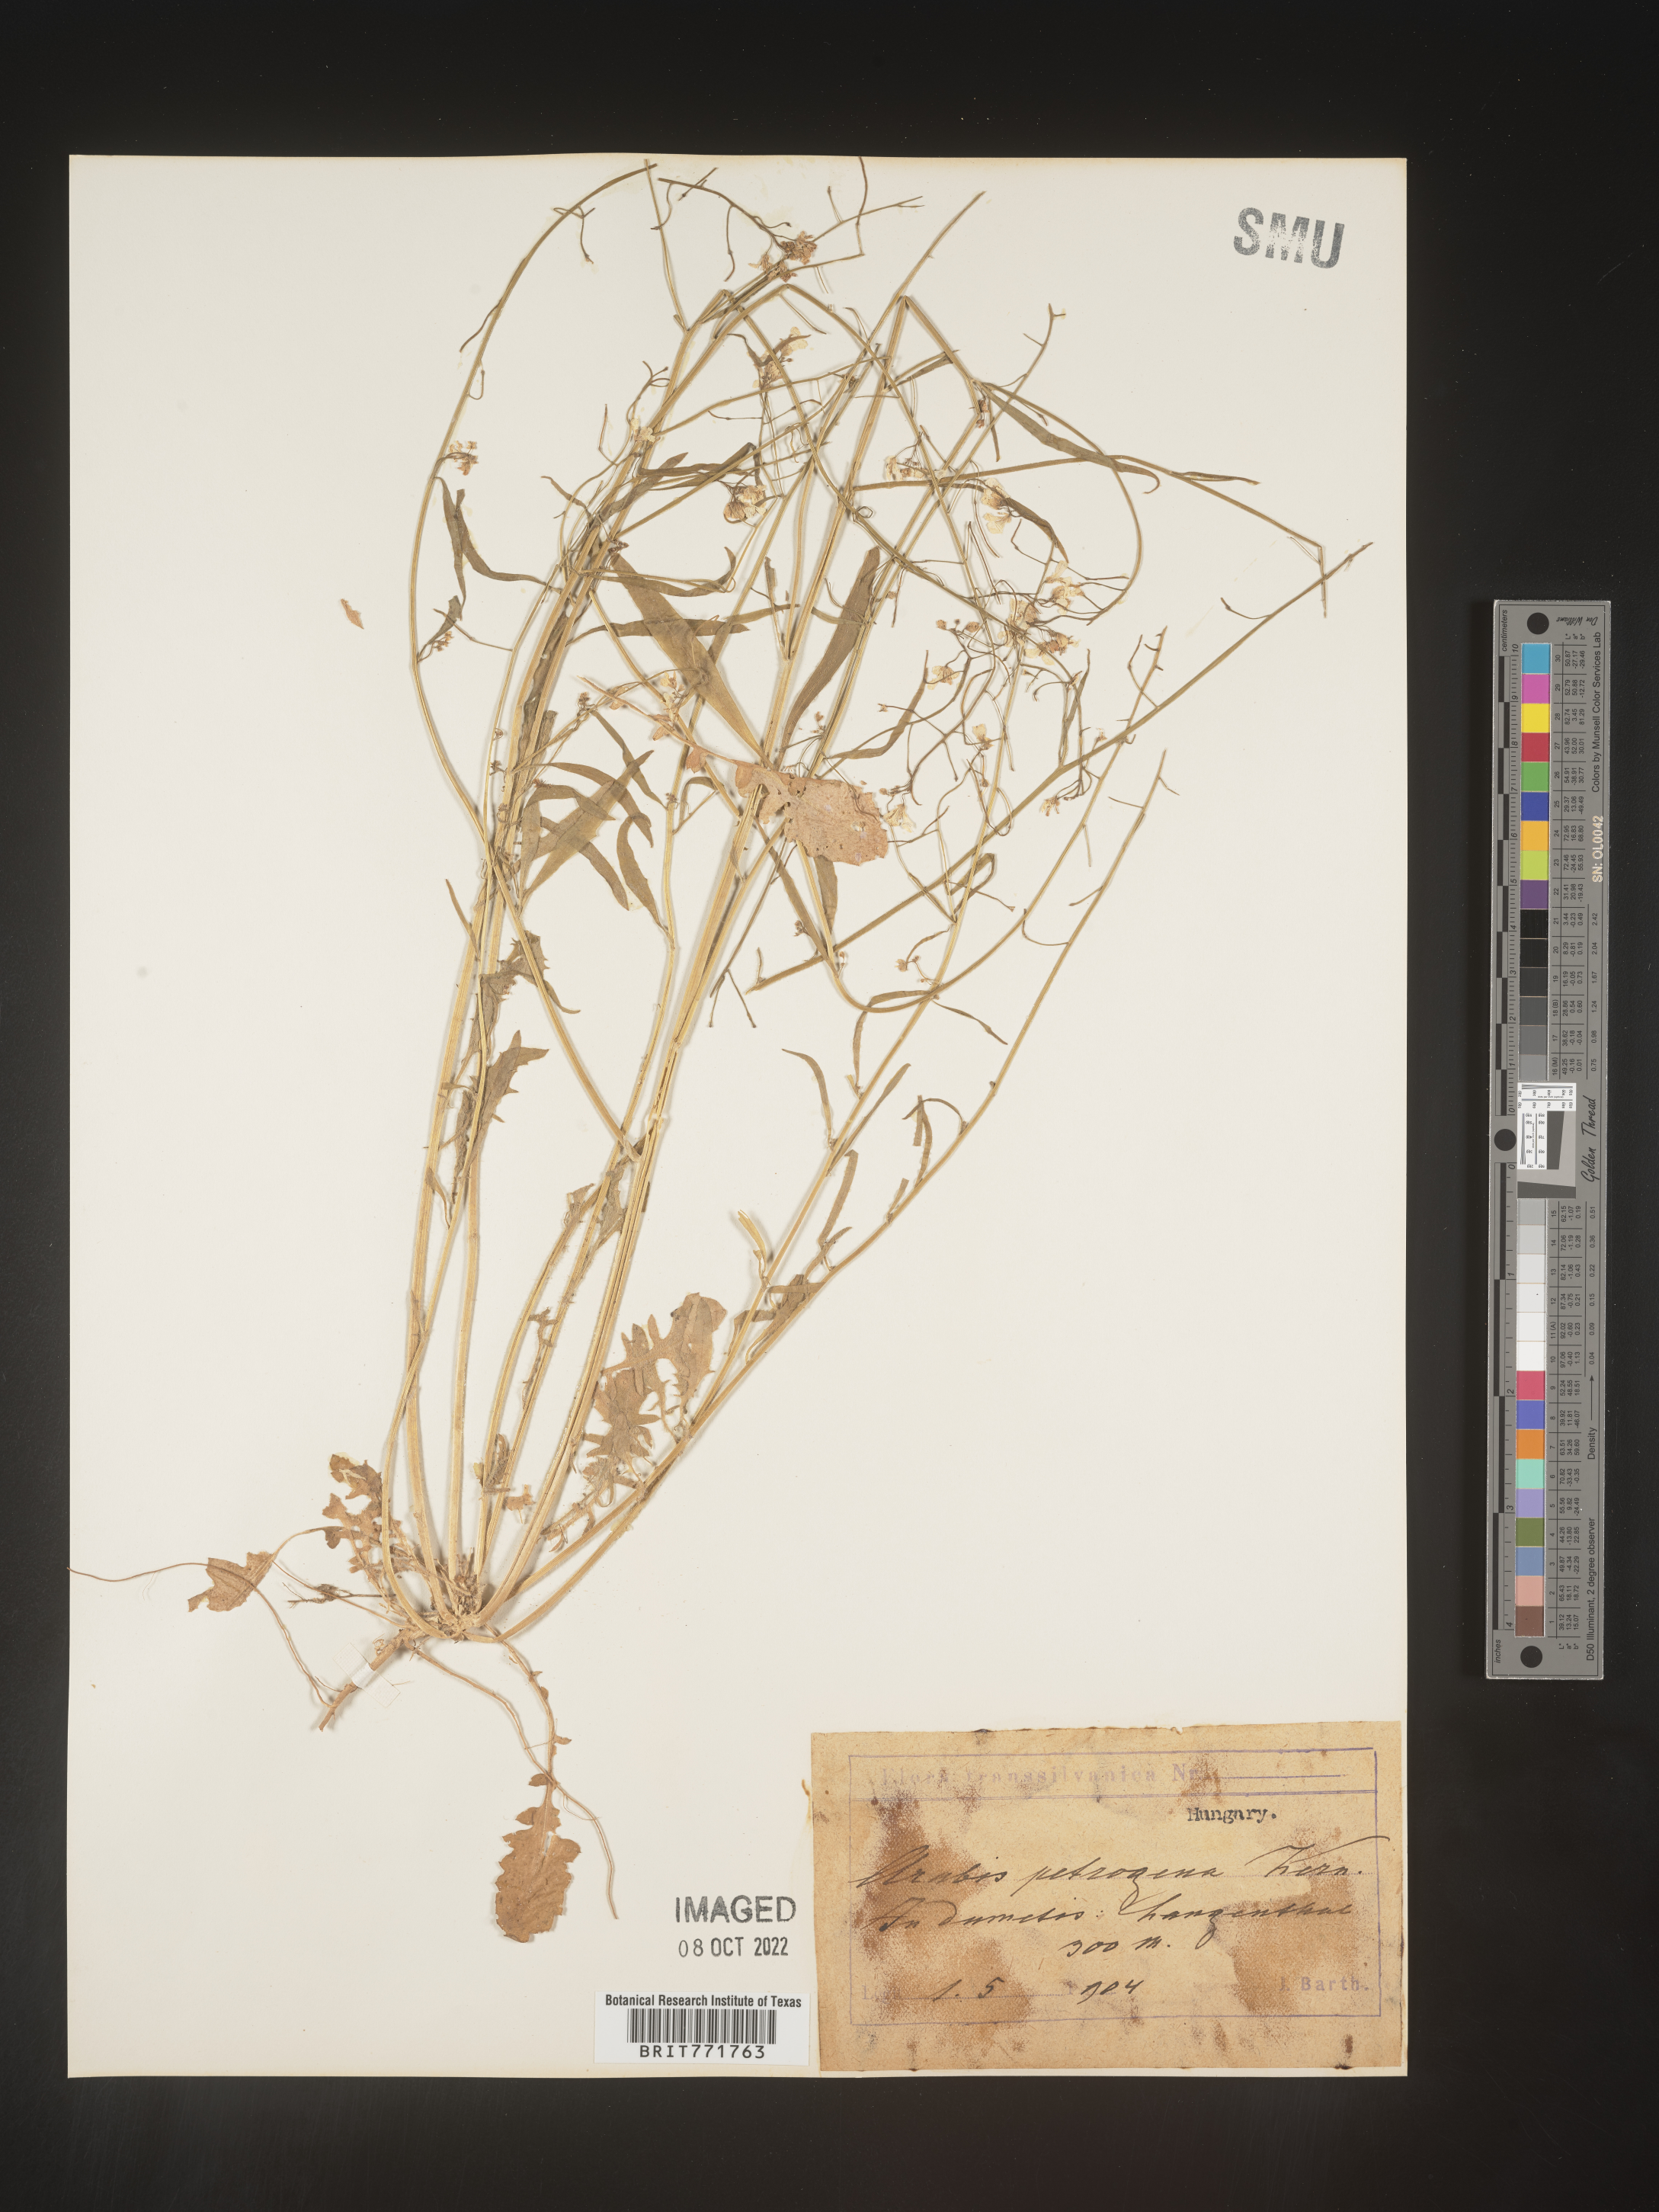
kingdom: Plantae
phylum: Tracheophyta
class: Magnoliopsida
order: Brassicales
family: Brassicaceae
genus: Arabis
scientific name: Arabis
